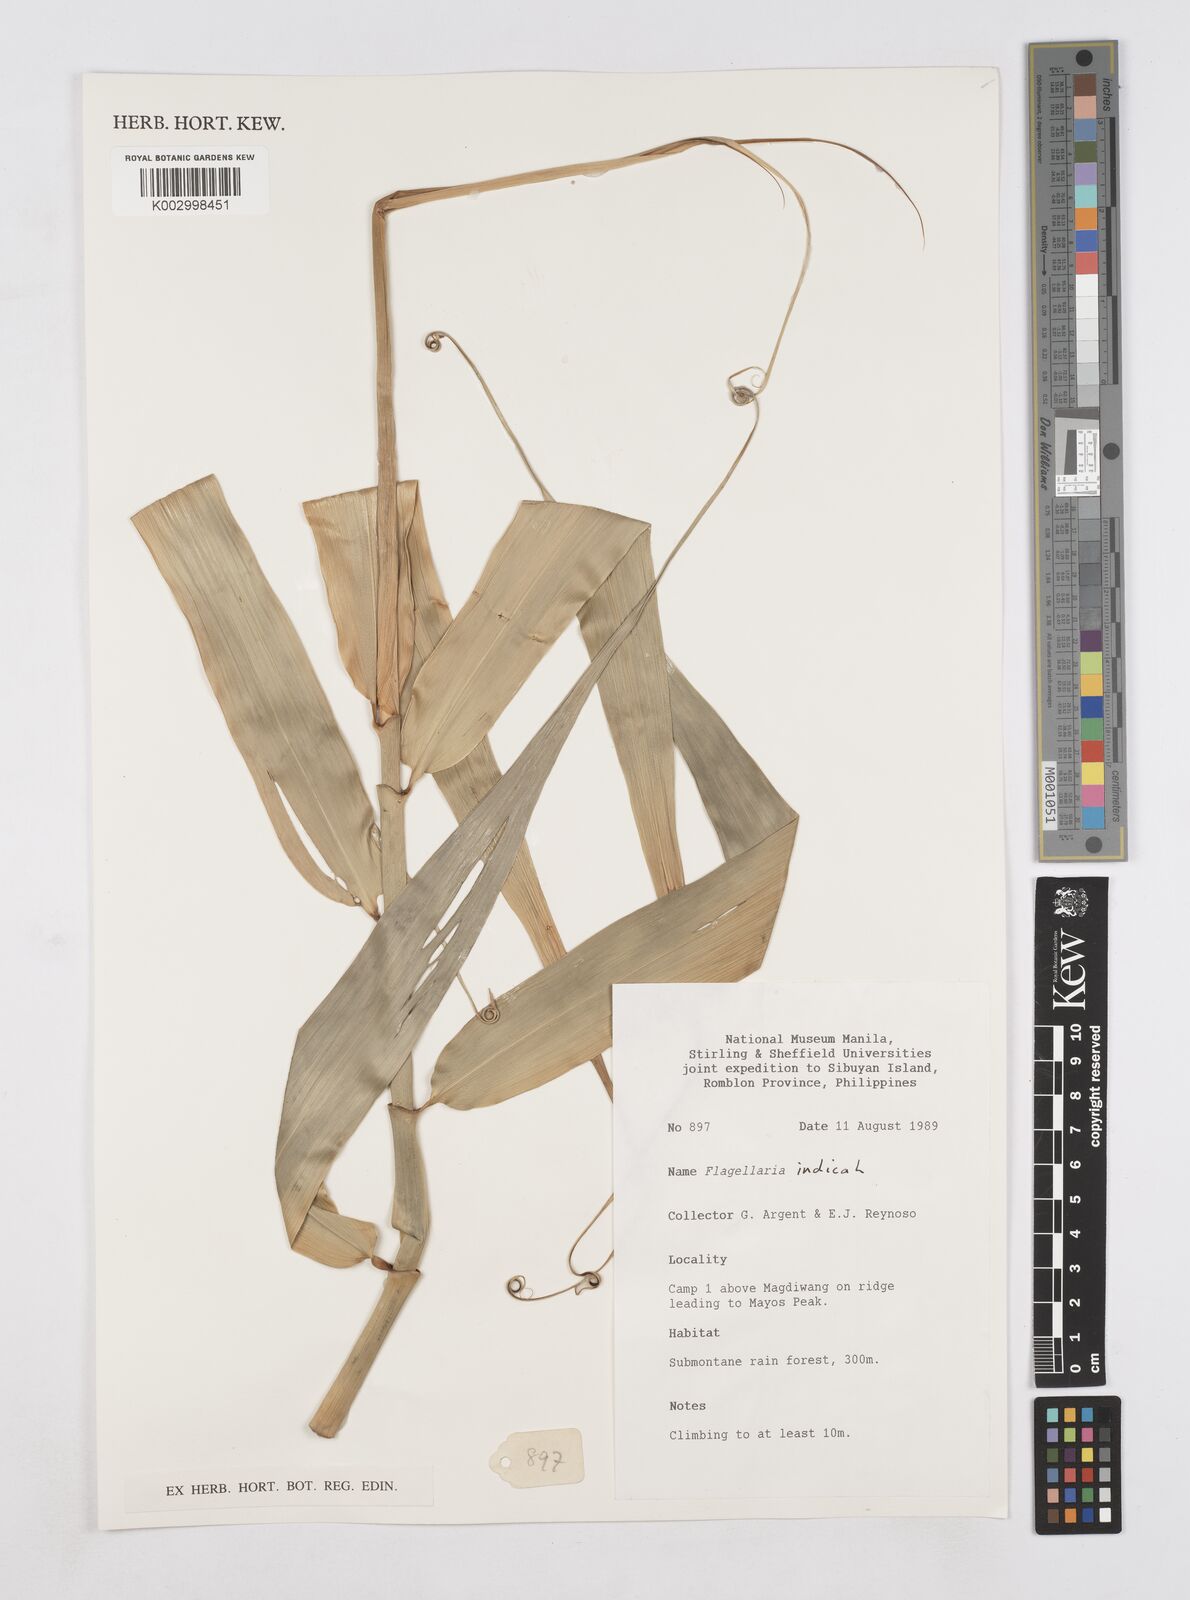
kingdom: Plantae
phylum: Tracheophyta
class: Liliopsida
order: Poales
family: Flagellariaceae
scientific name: Flagellariaceae
